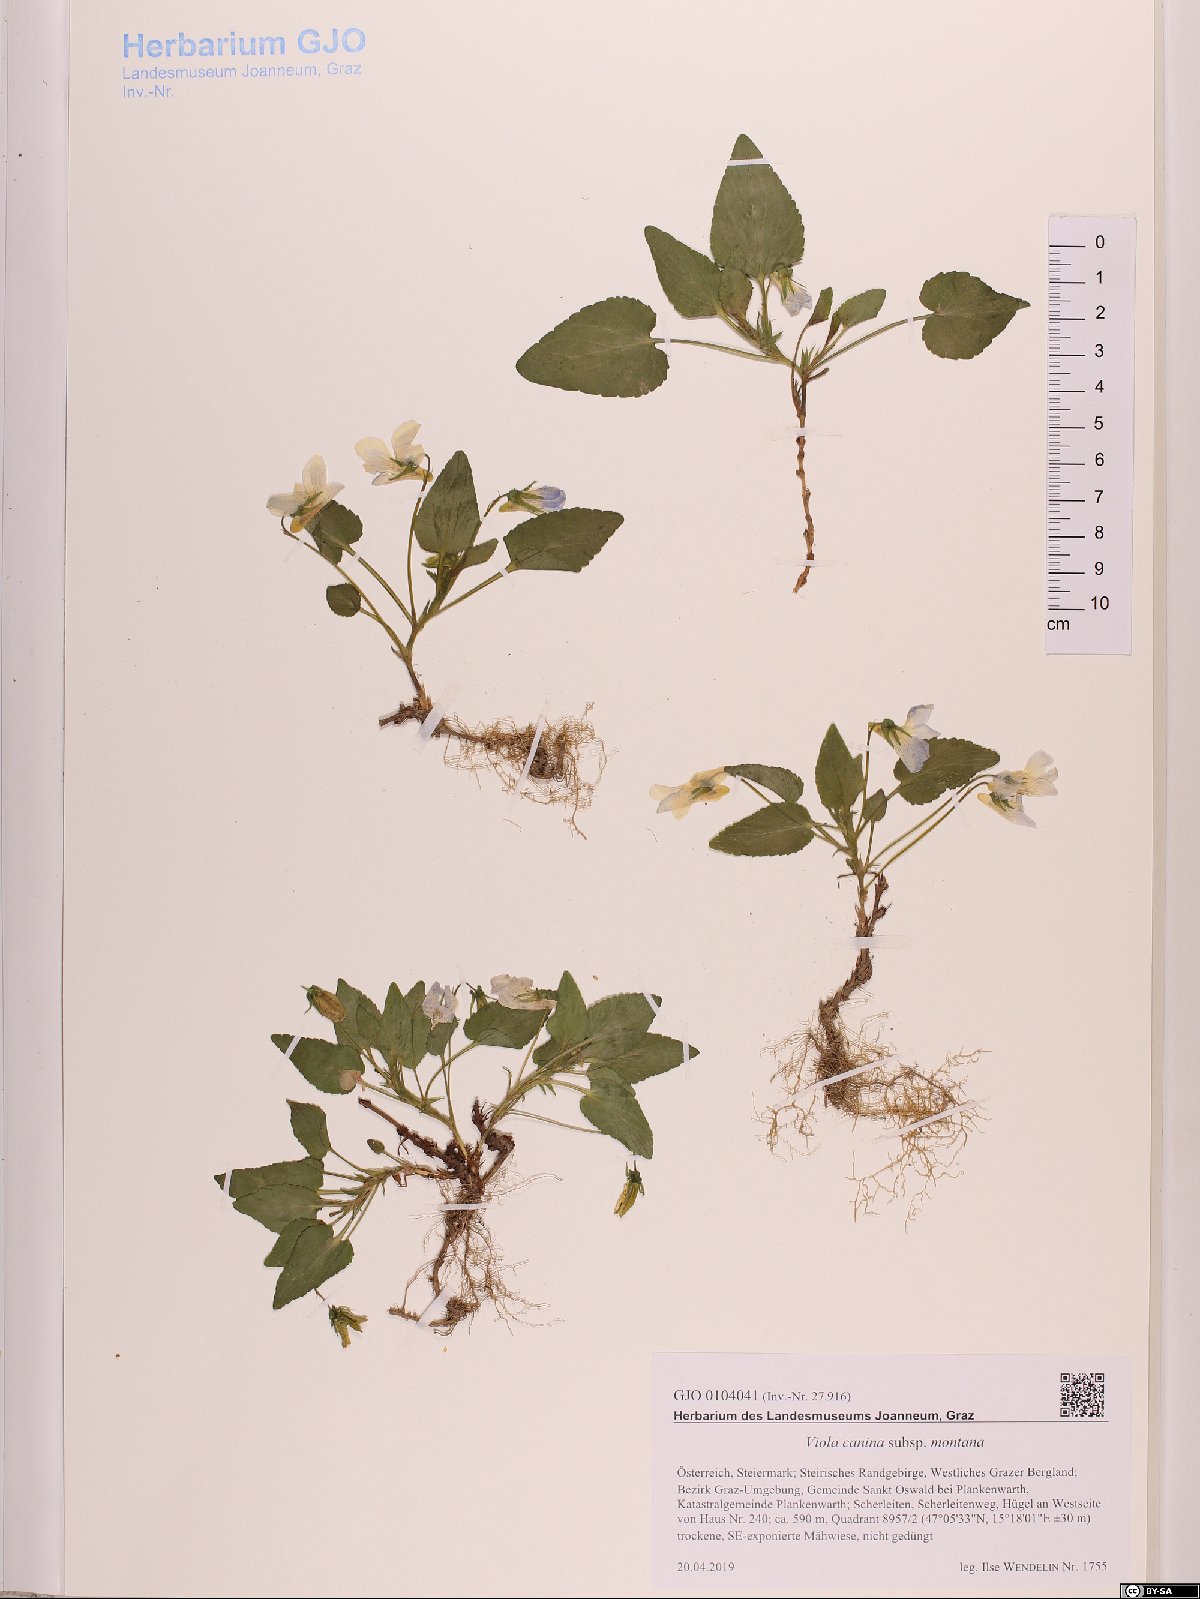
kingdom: Plantae
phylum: Tracheophyta
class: Magnoliopsida
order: Malpighiales
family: Violaceae
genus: Viola
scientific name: Viola ruppii
